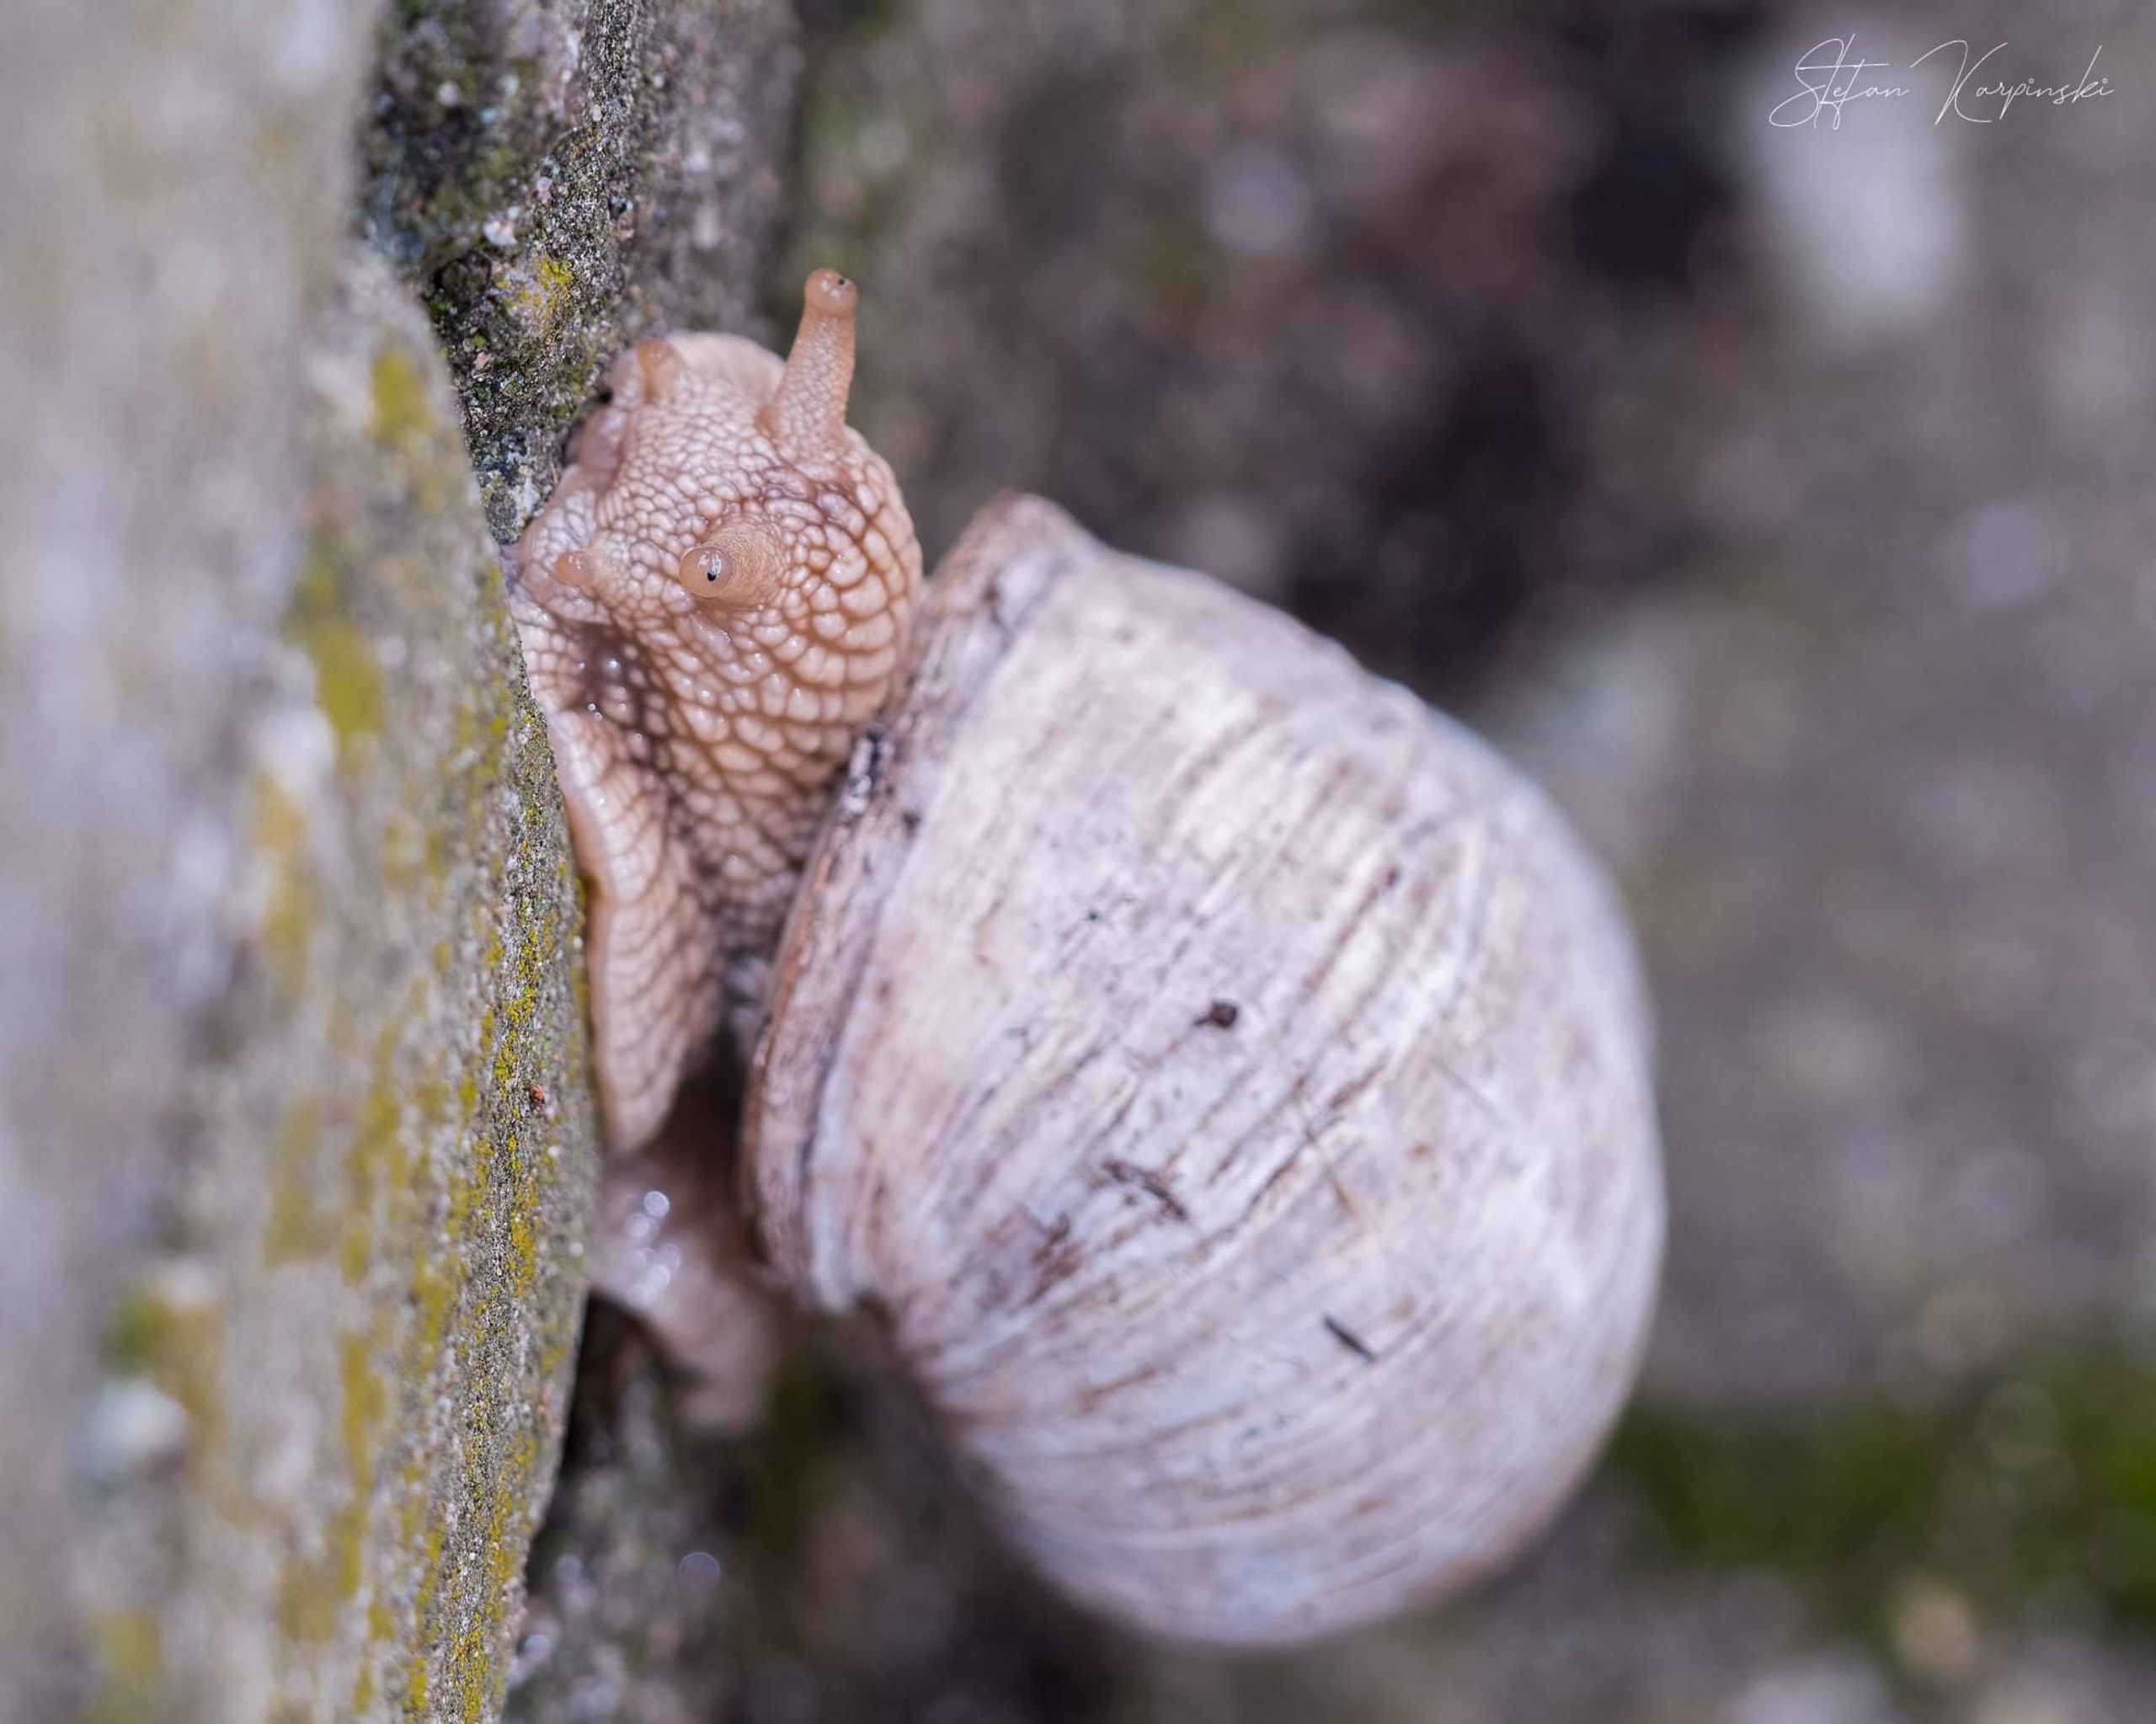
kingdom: Animalia
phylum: Mollusca
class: Gastropoda
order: Stylommatophora
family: Helicidae
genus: Helix
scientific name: Helix pomatia
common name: Vinbjergsnegl
